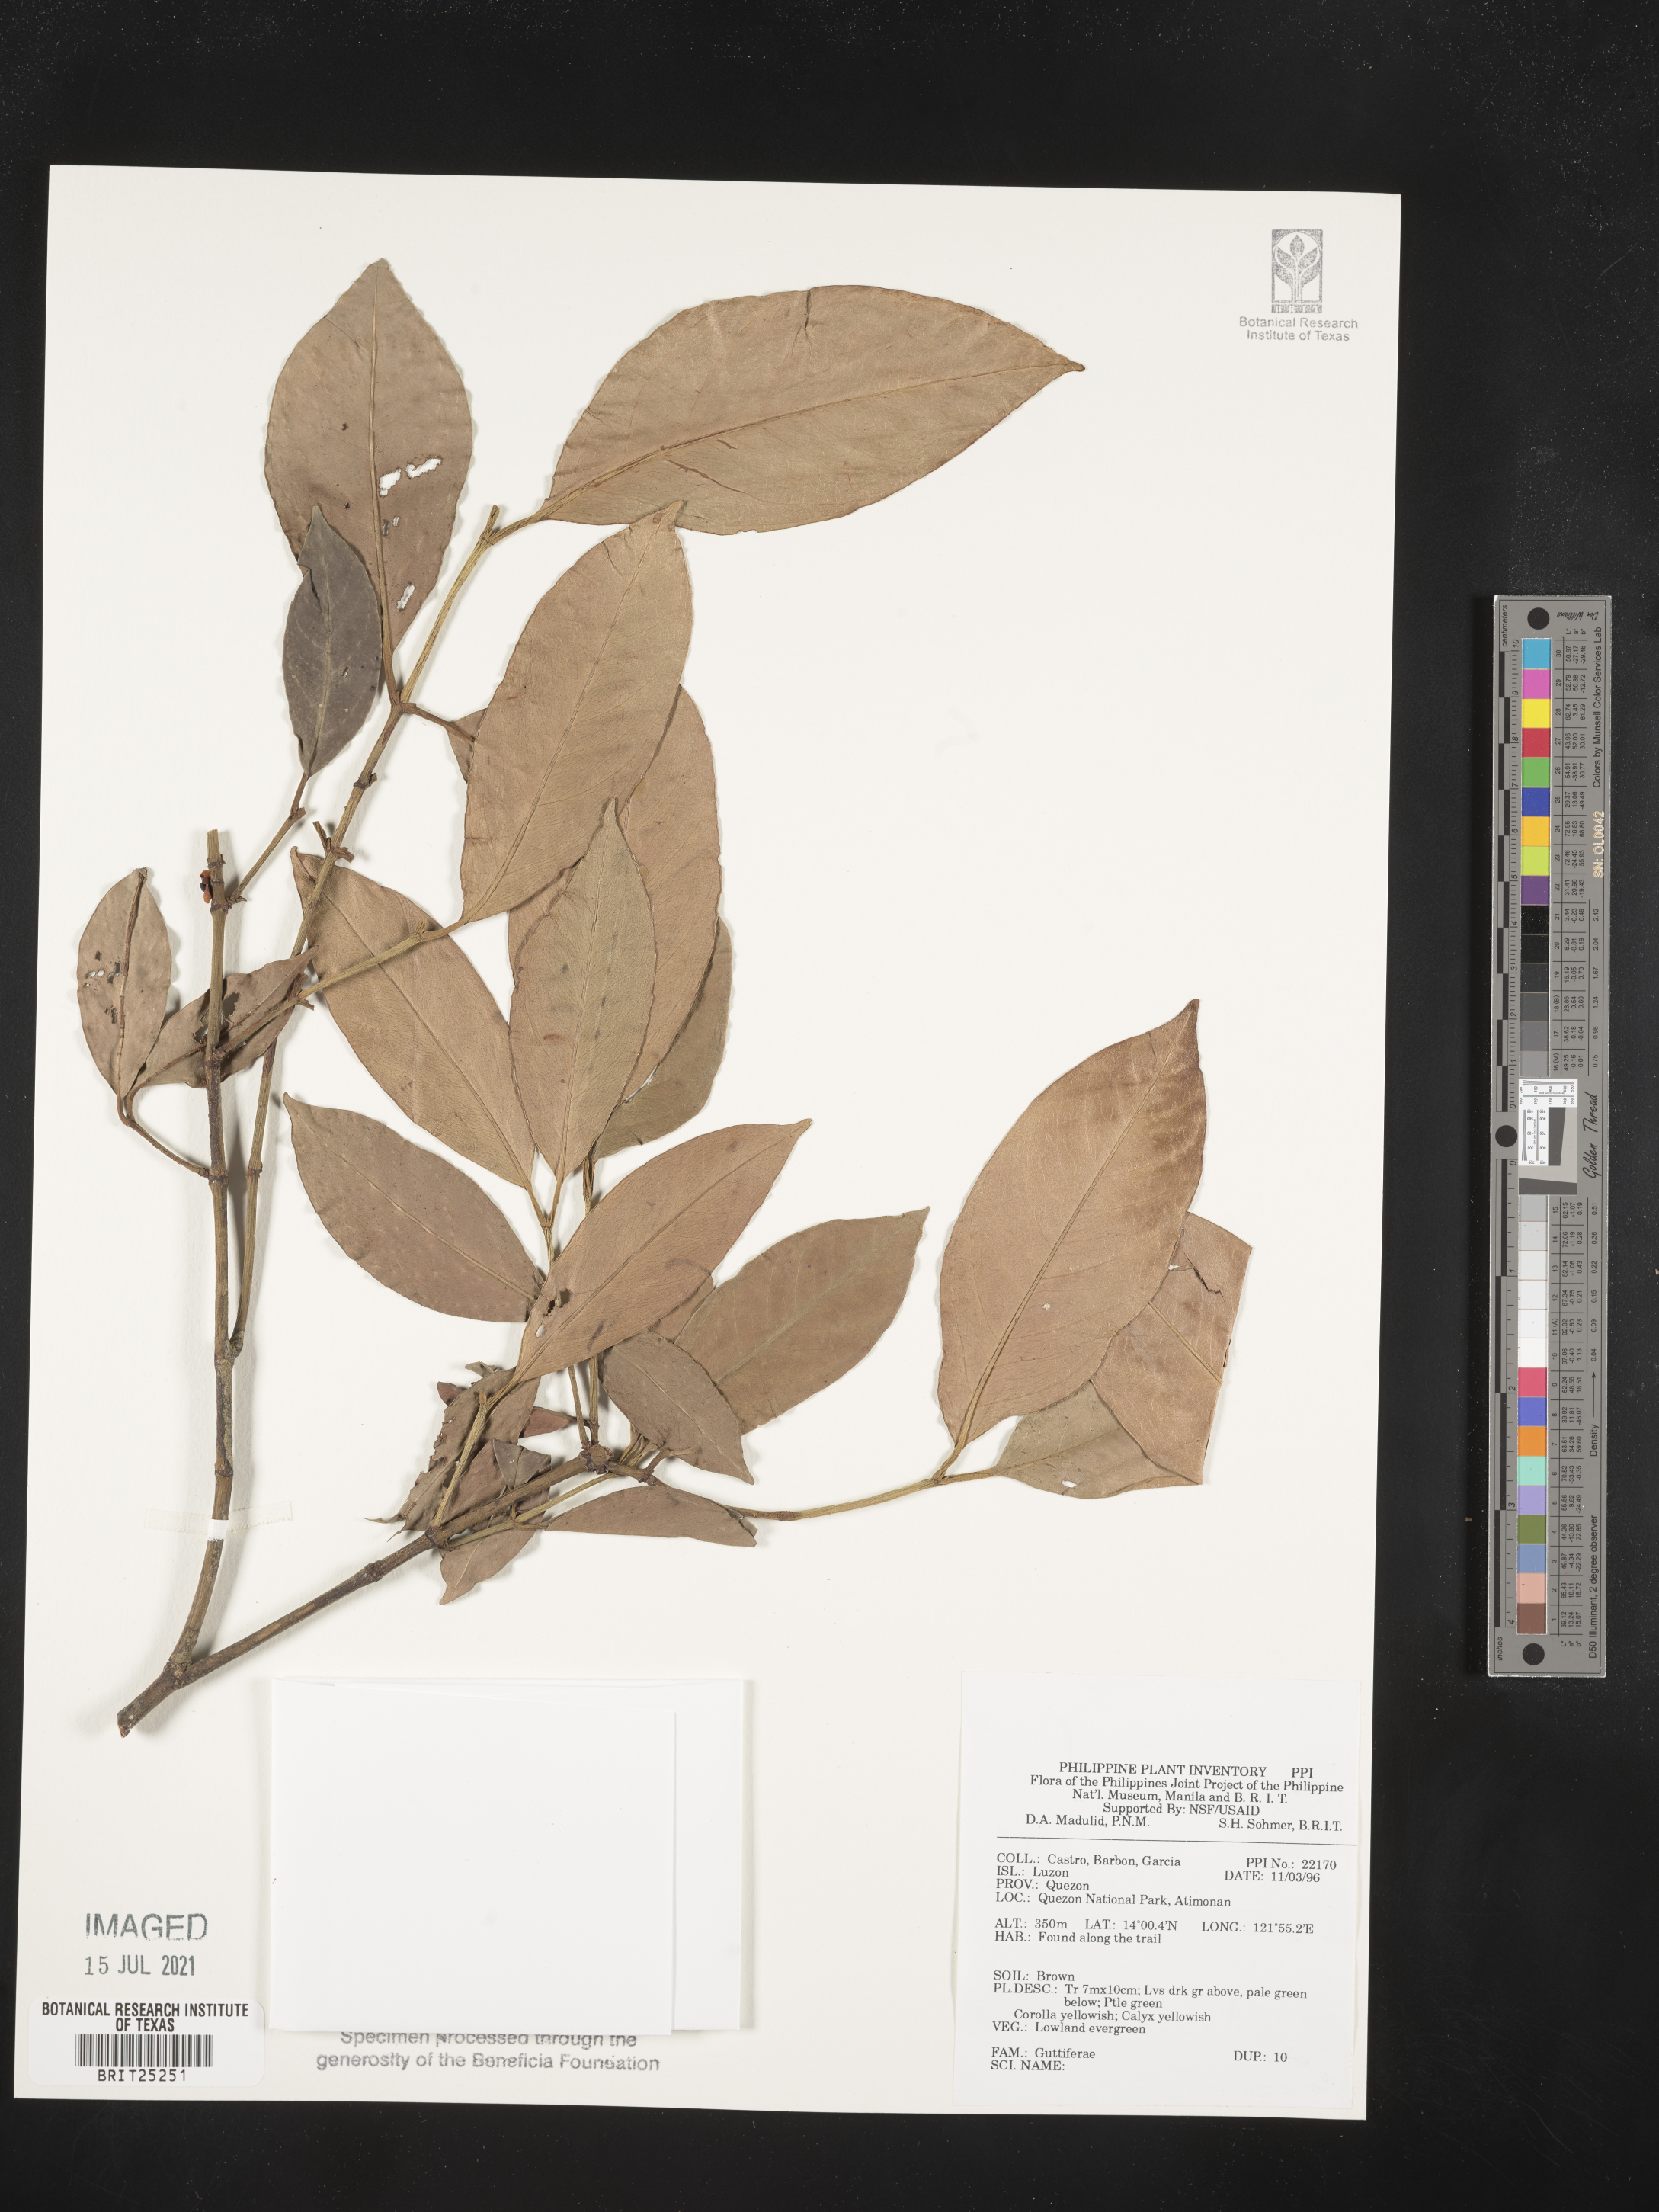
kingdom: Plantae
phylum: Tracheophyta
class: Magnoliopsida
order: Malpighiales
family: Hypericaceae
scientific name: Hypericaceae
